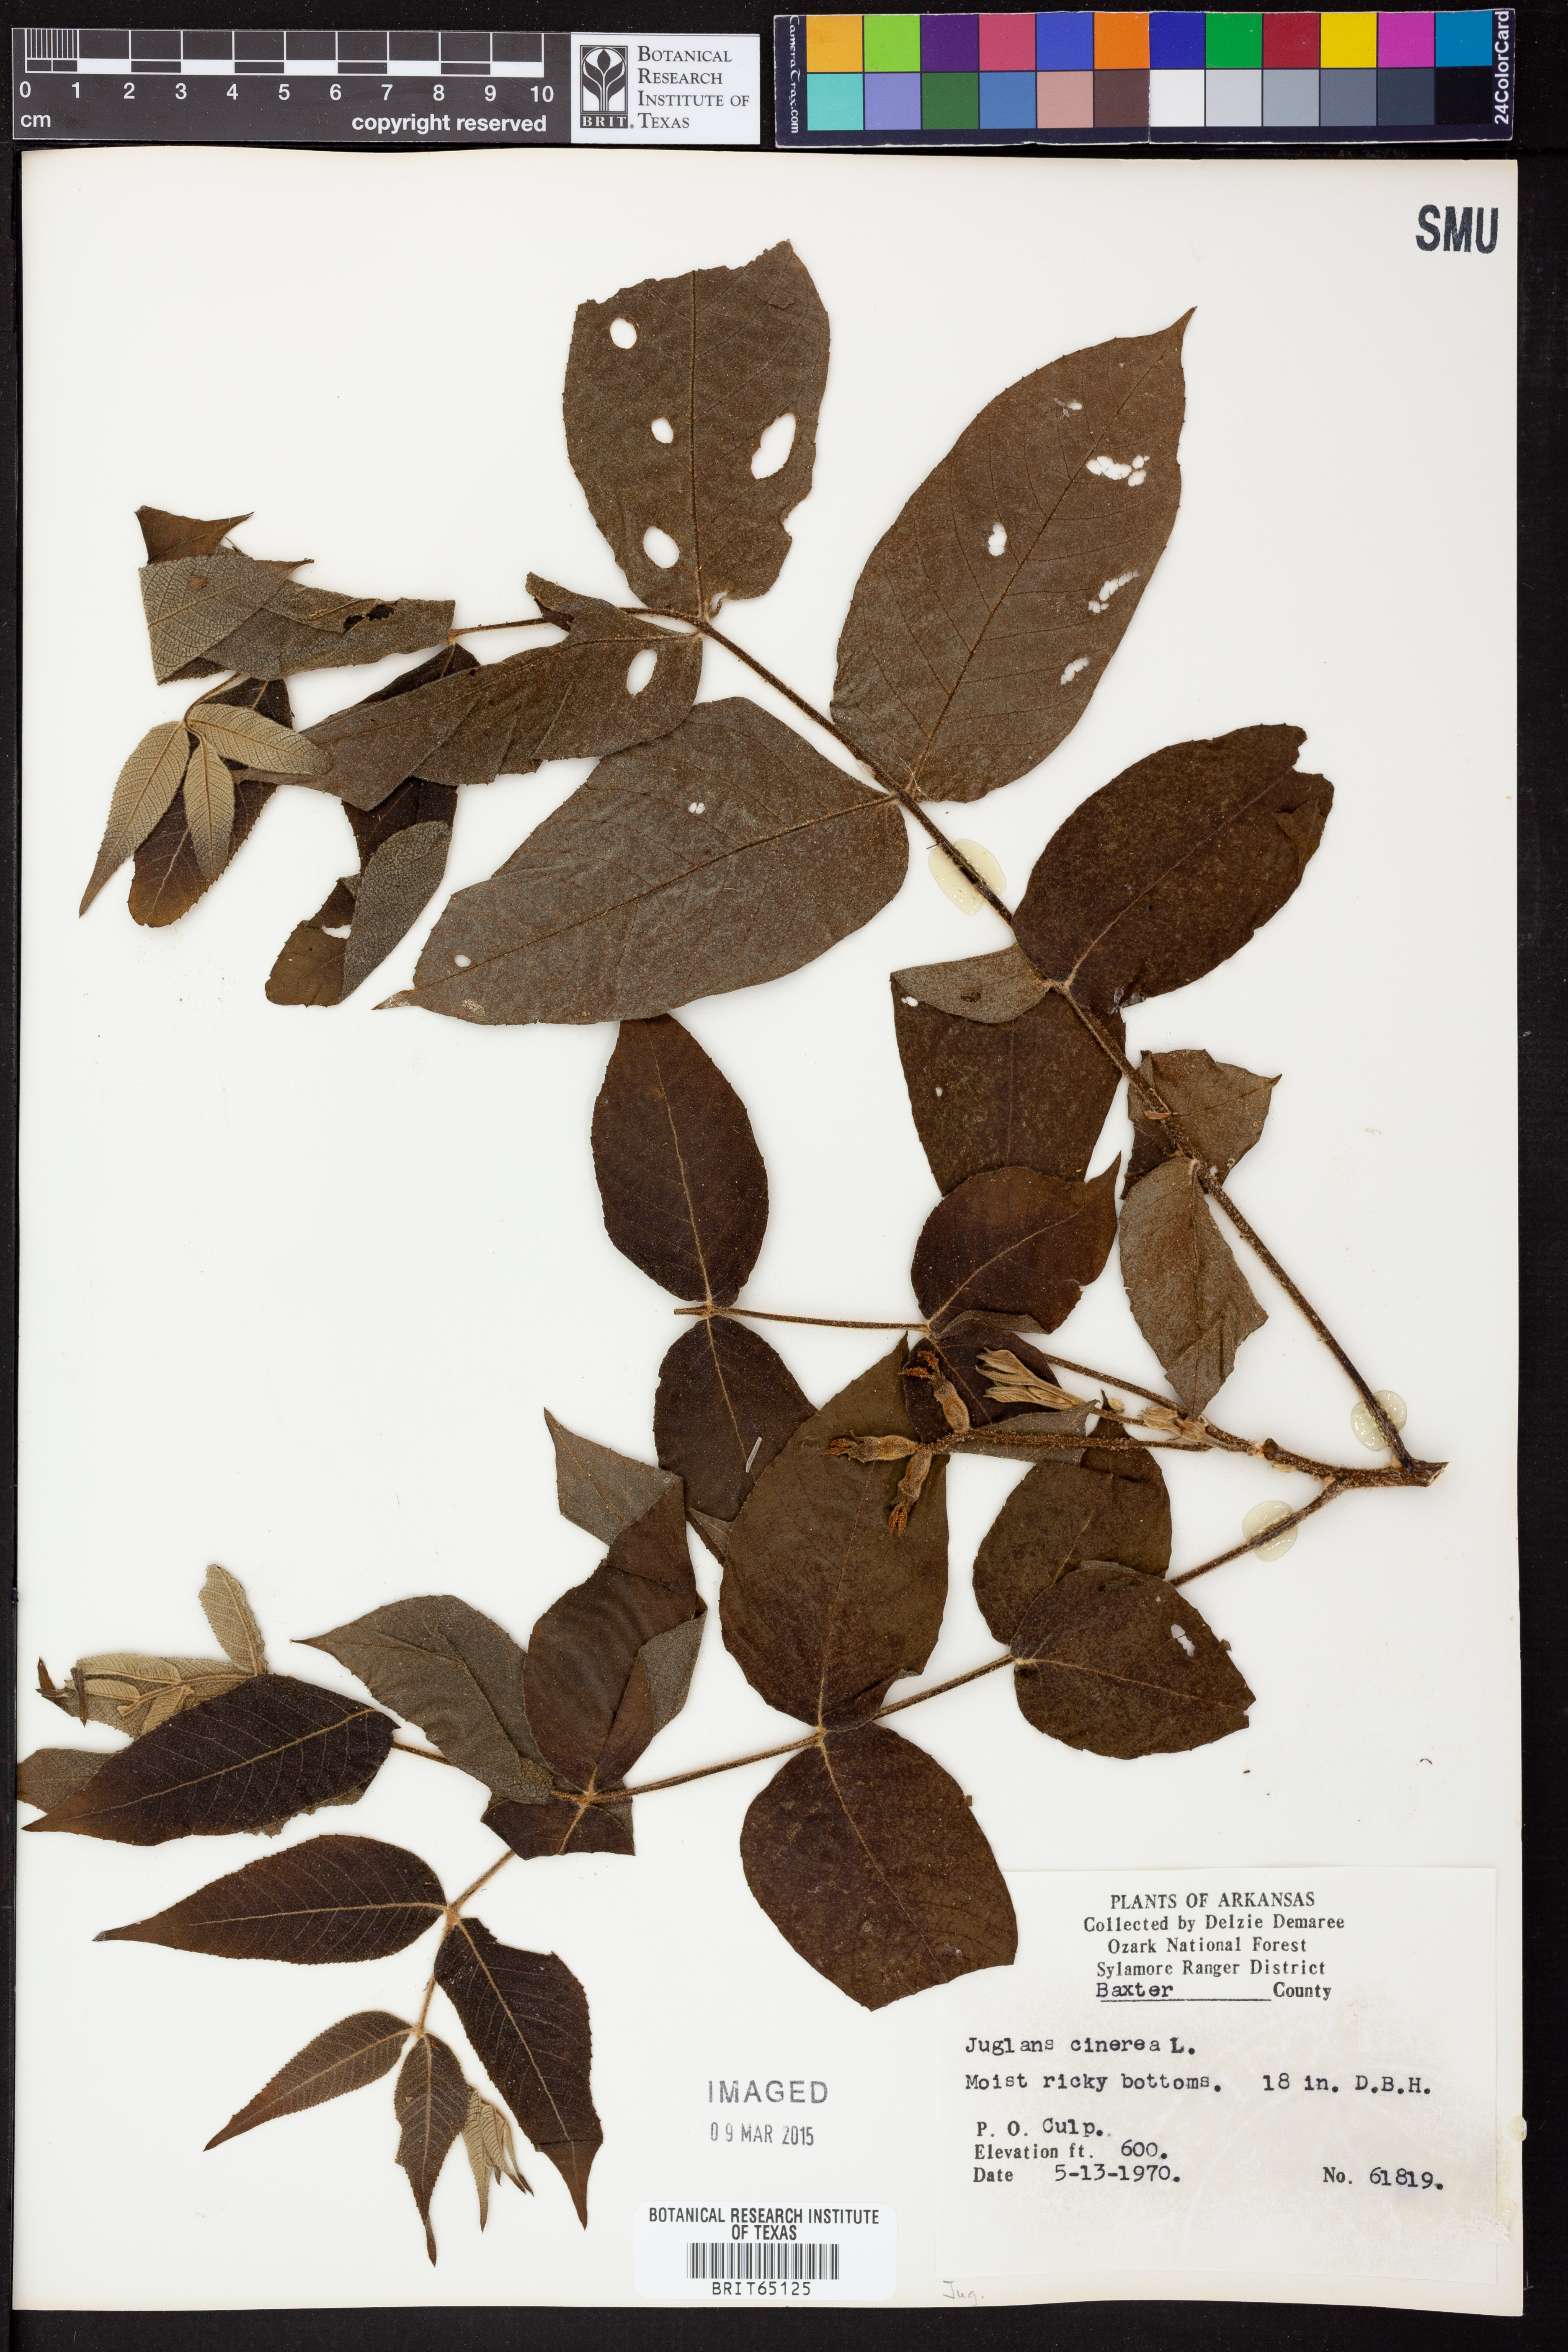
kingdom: Plantae
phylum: Tracheophyta
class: Magnoliopsida
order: Fagales
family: Juglandaceae
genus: Juglans
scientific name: Juglans cinerea
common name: Butternut
